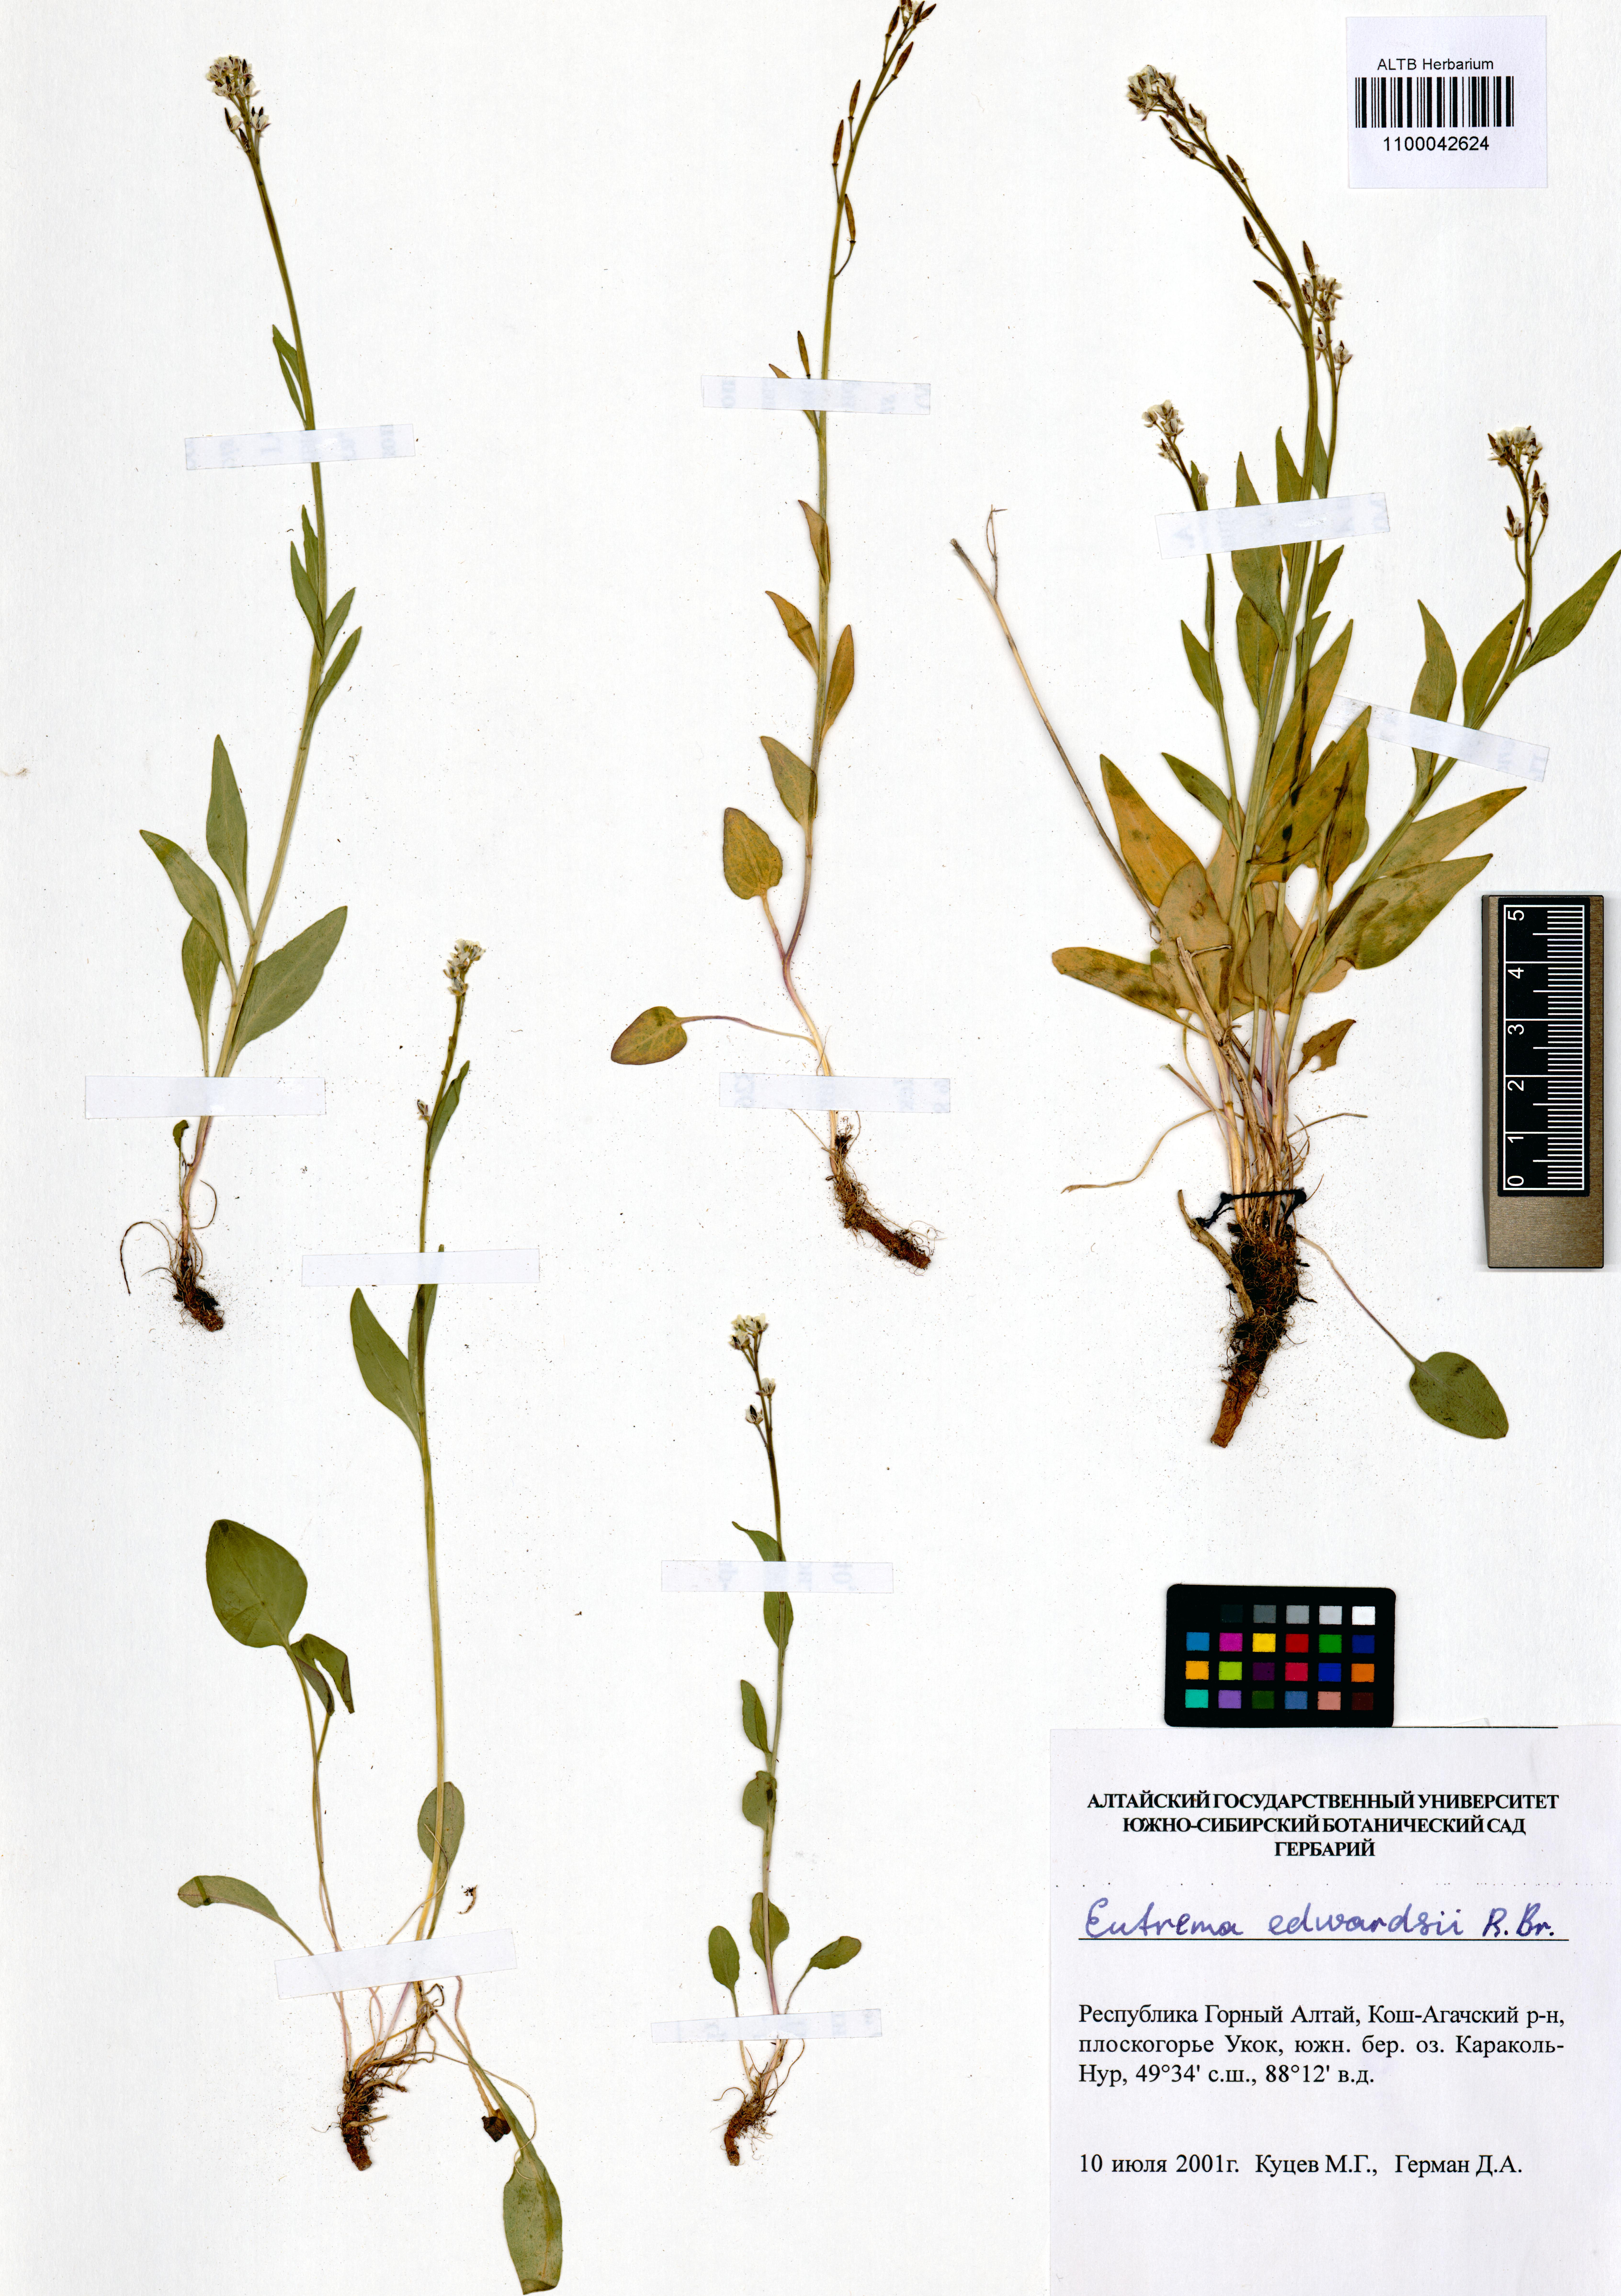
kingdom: Plantae
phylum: Tracheophyta
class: Magnoliopsida
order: Brassicales
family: Brassicaceae
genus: Eutrema
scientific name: Eutrema edwardsii
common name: Penland alpine fen mustard
